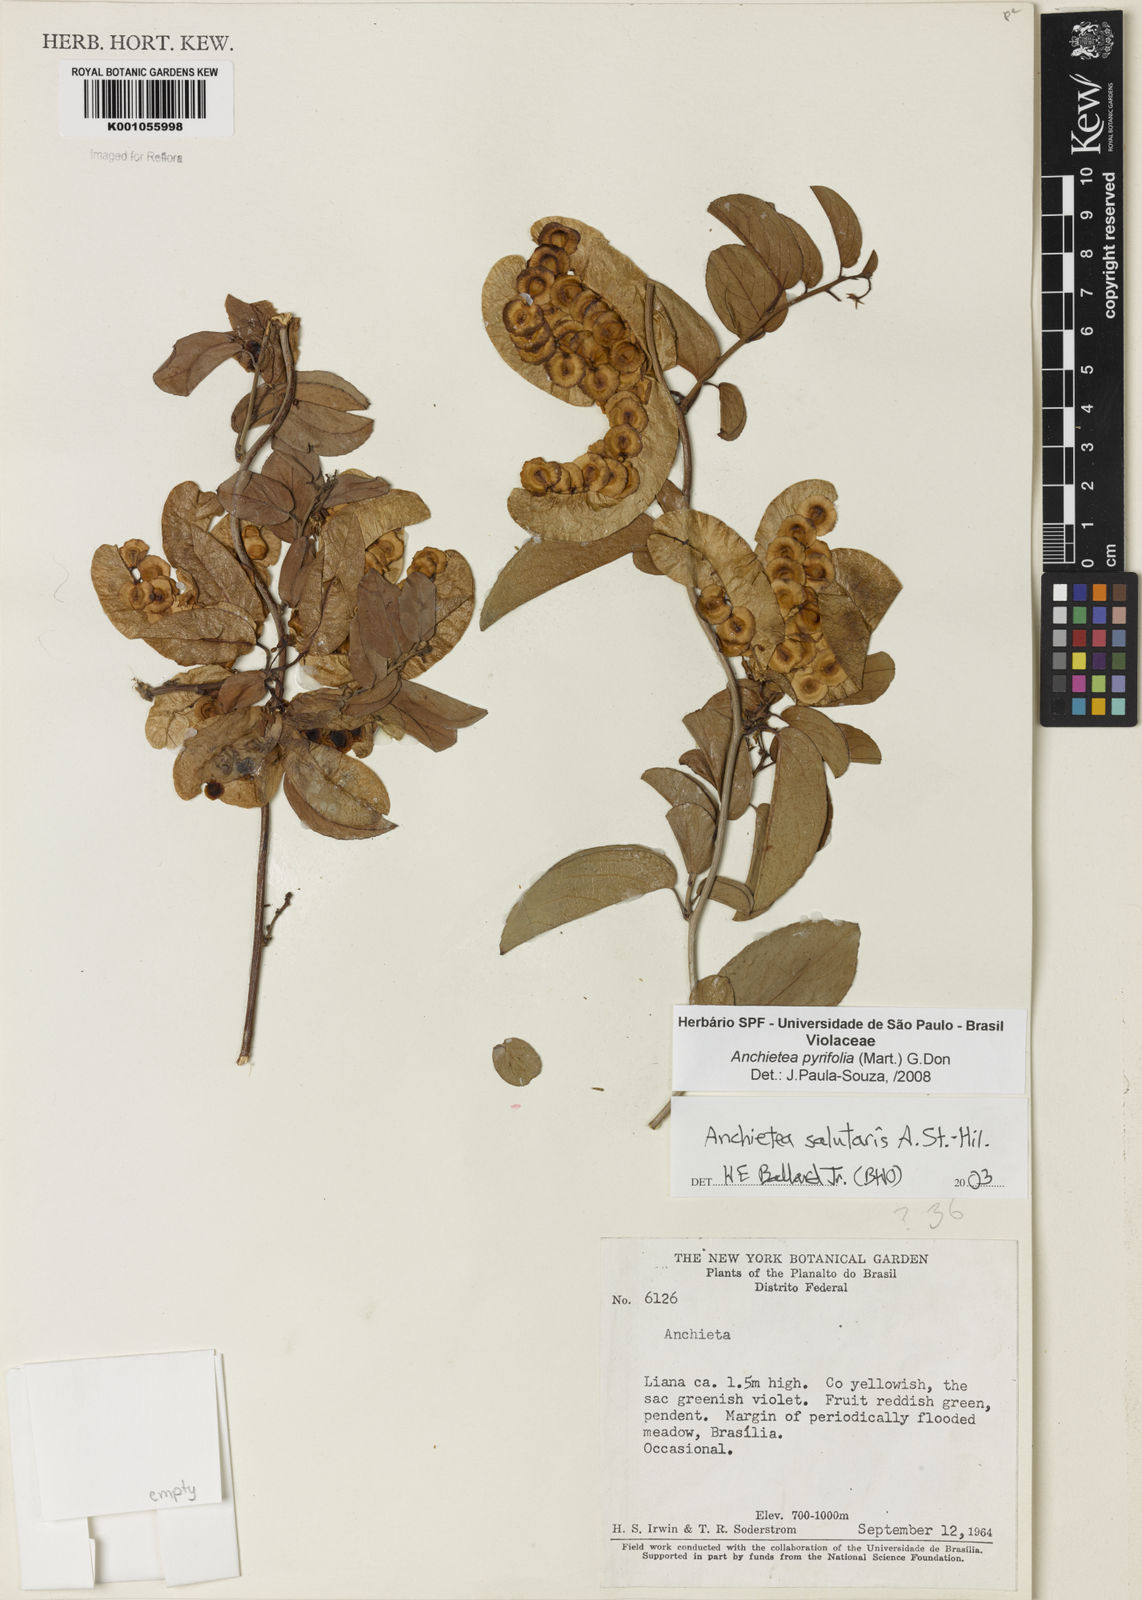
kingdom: Plantae
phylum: Tracheophyta
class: Magnoliopsida
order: Malpighiales
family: Violaceae
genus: Anchietea
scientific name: Anchietea pyrifolia
